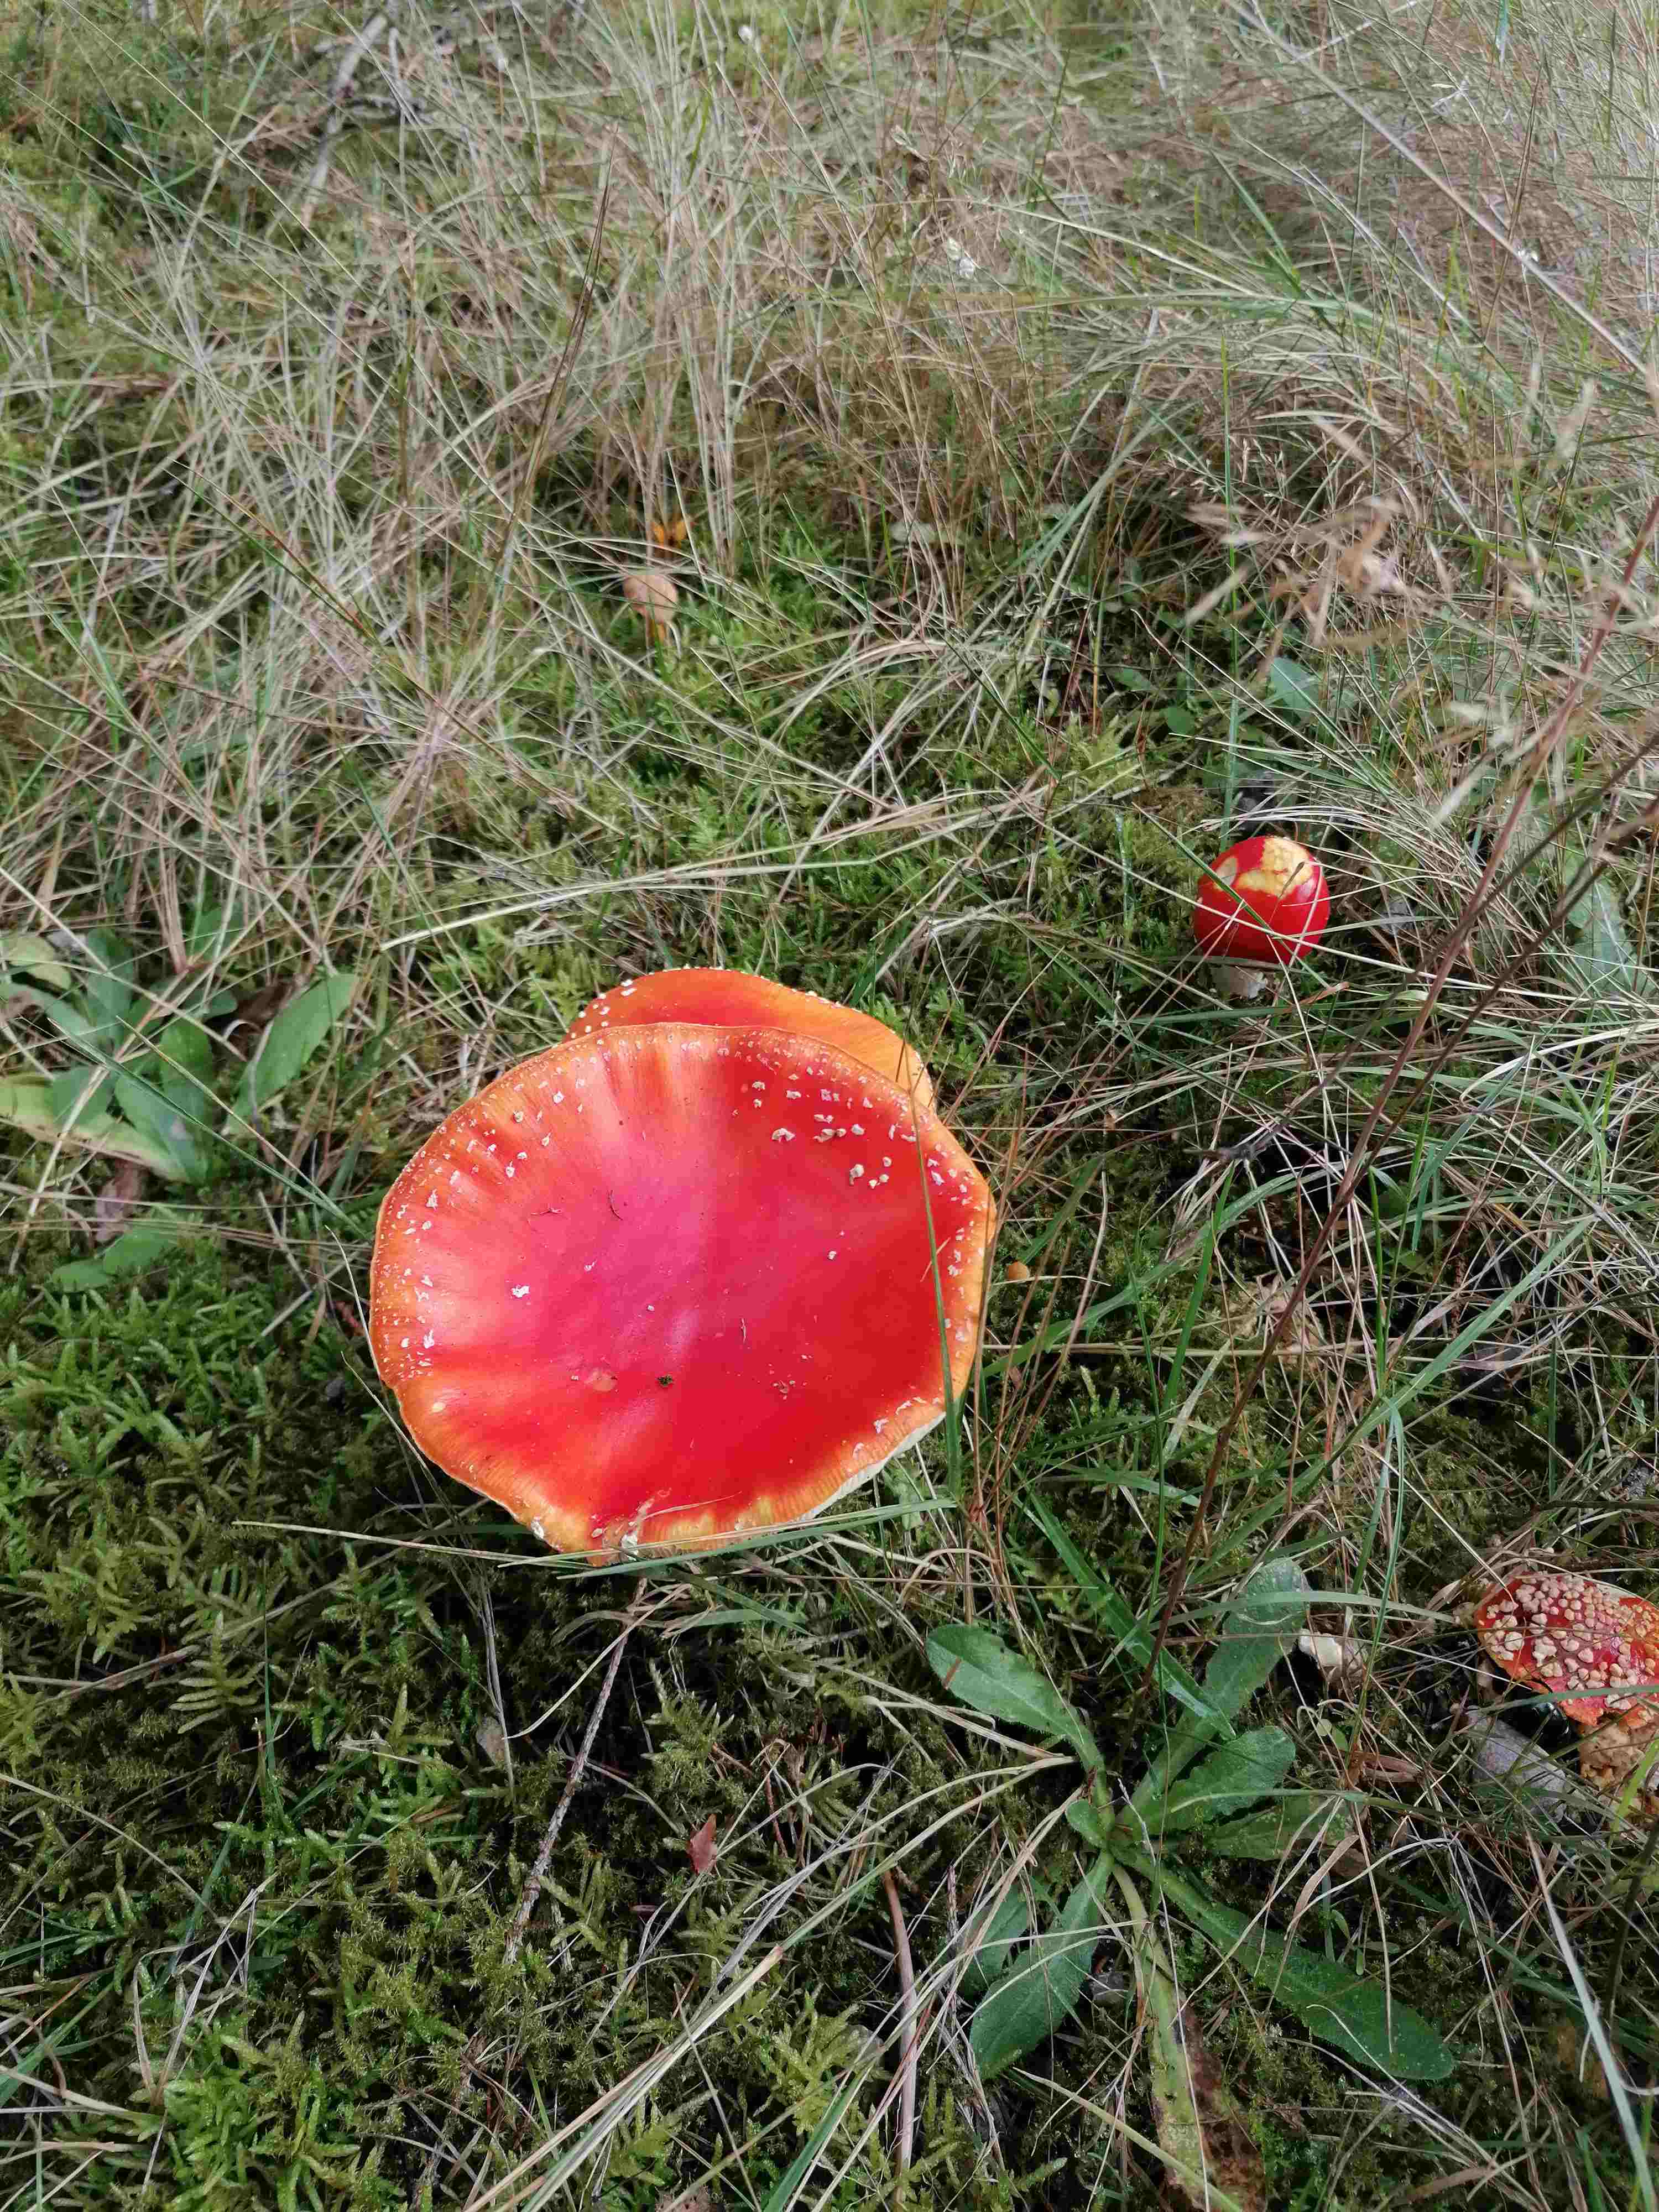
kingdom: Fungi
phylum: Basidiomycota
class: Agaricomycetes
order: Agaricales
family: Amanitaceae
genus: Amanita
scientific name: Amanita muscaria
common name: rød fluesvamp
